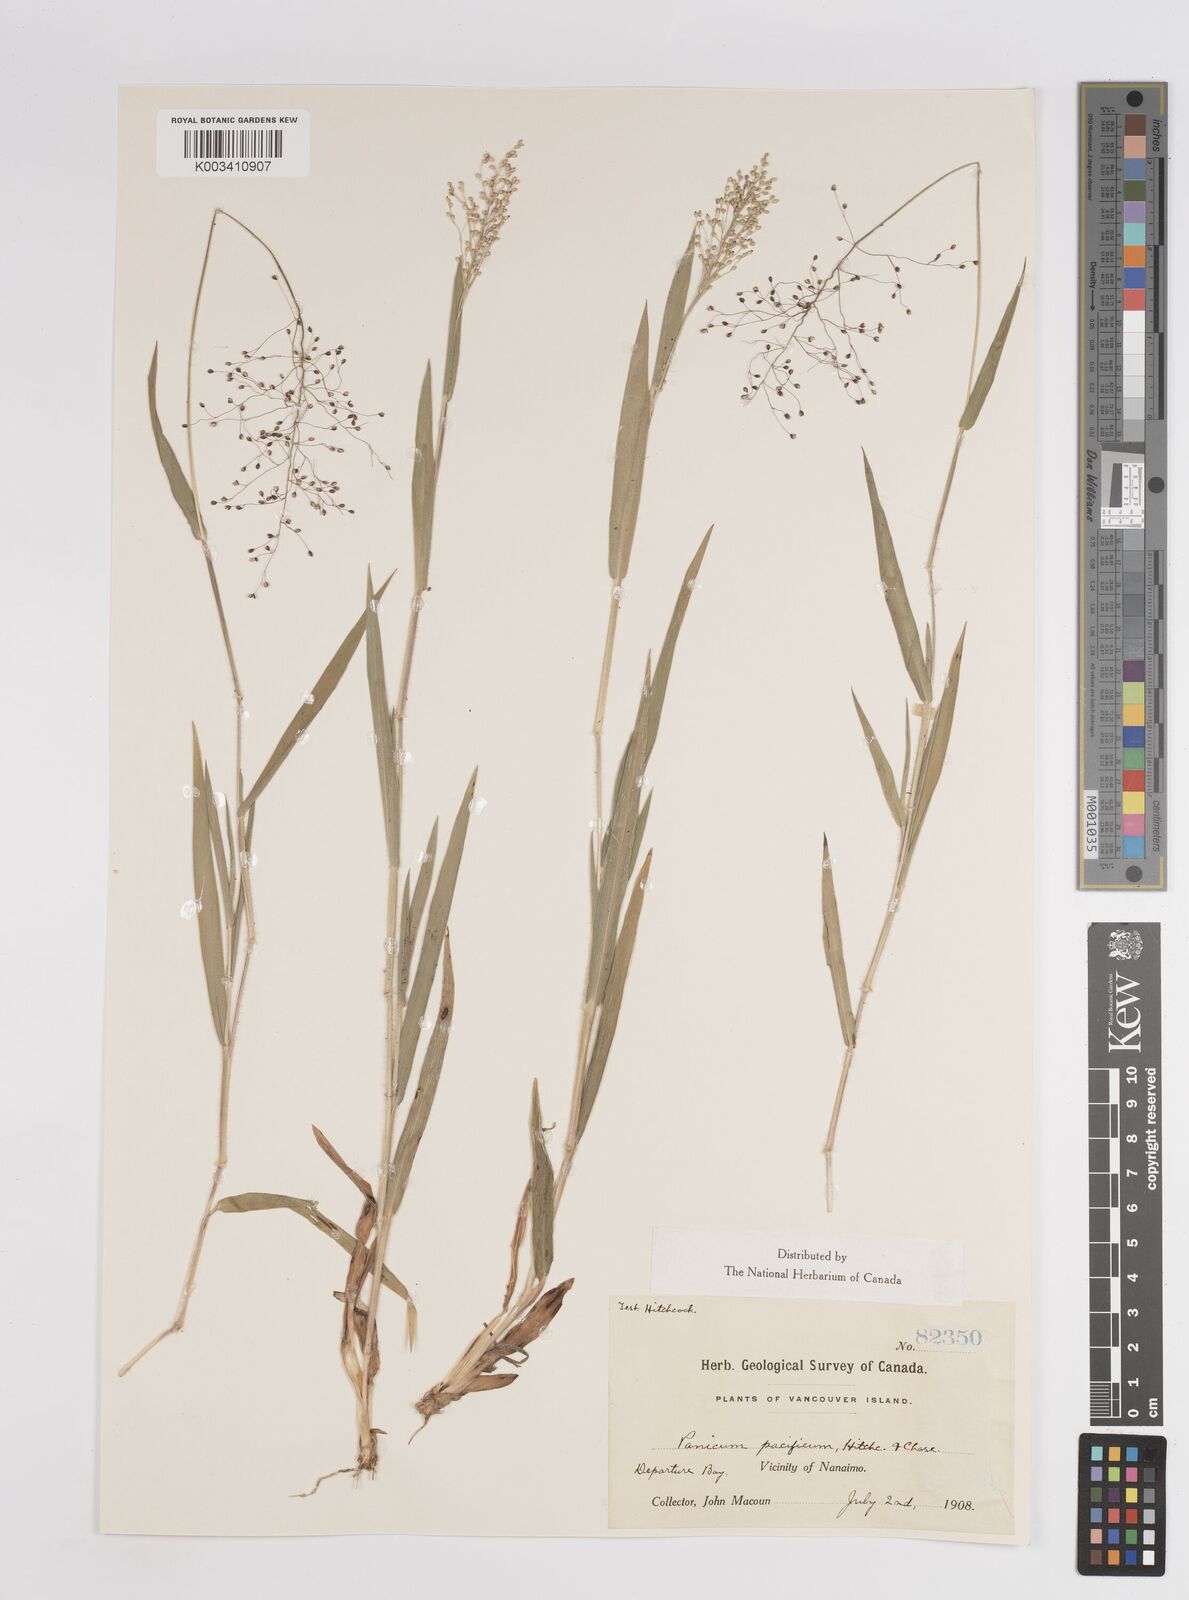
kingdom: Plantae
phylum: Tracheophyta
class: Liliopsida
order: Poales
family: Poaceae
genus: Dichanthelium
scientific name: Dichanthelium implicatum
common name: Slender-stemmed panicgrass
